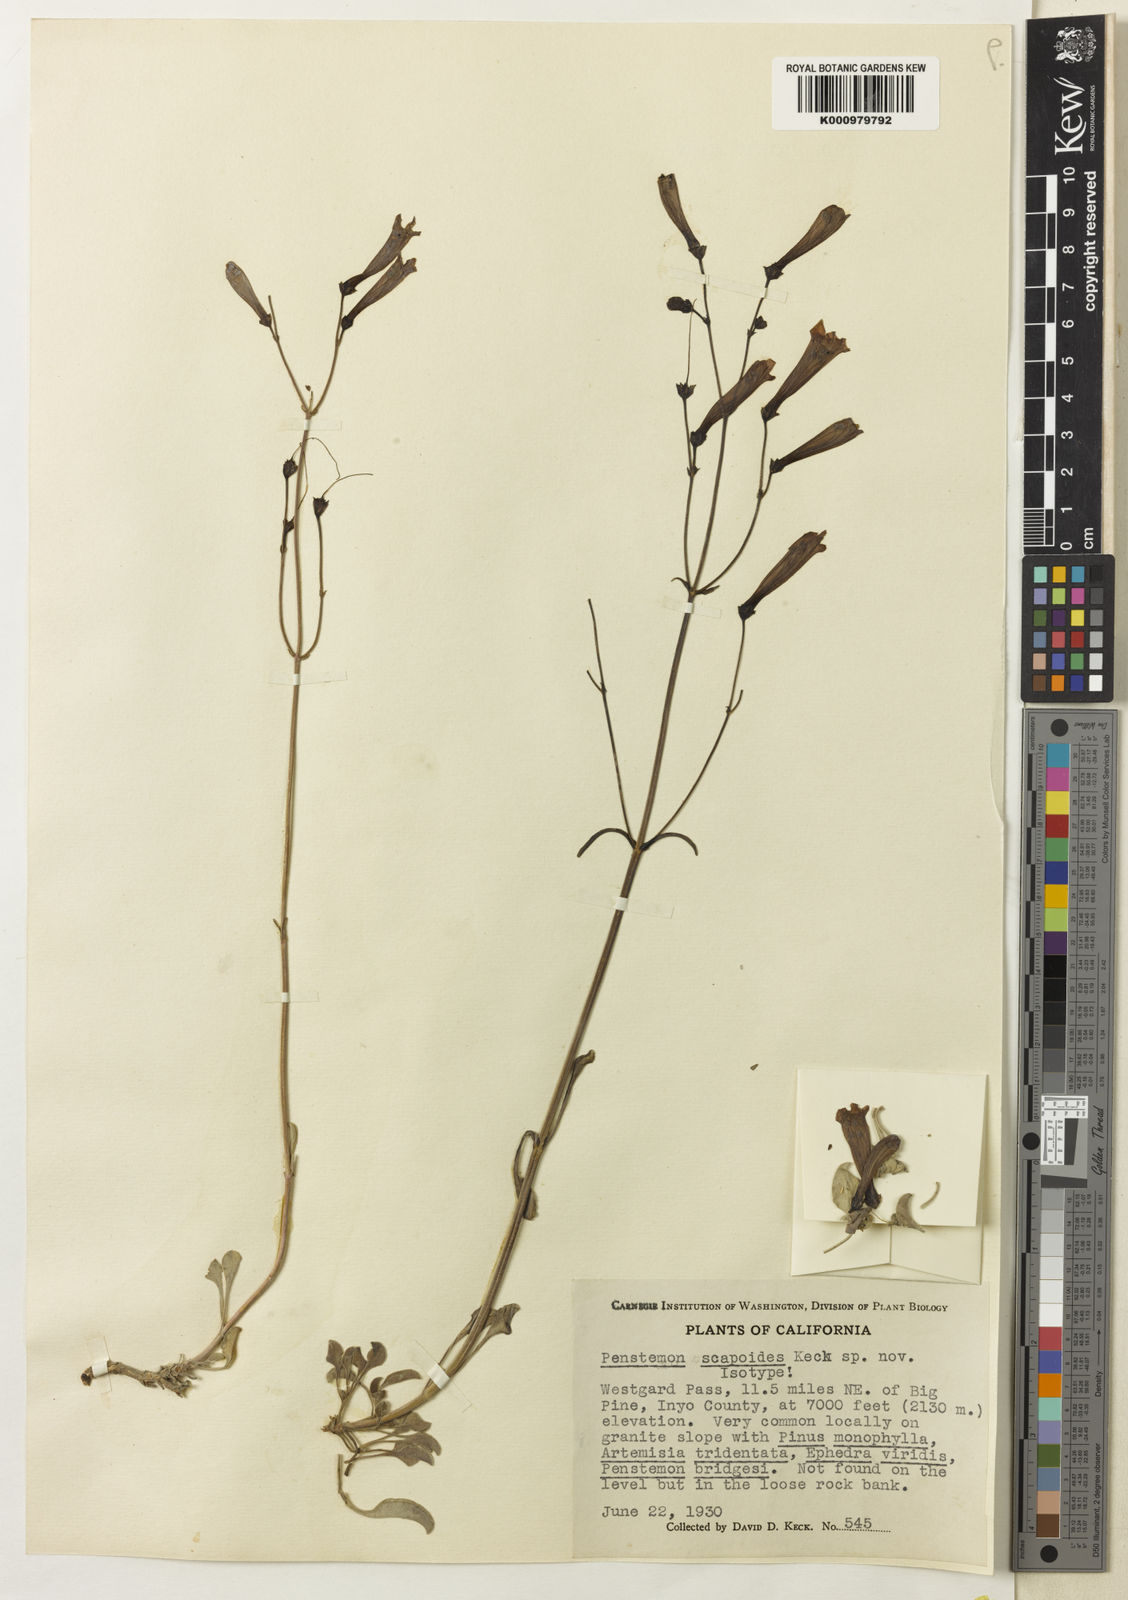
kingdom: Plantae
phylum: Tracheophyta
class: Magnoliopsida
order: Lamiales
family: Plantaginaceae
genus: Penstemon
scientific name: Penstemon
